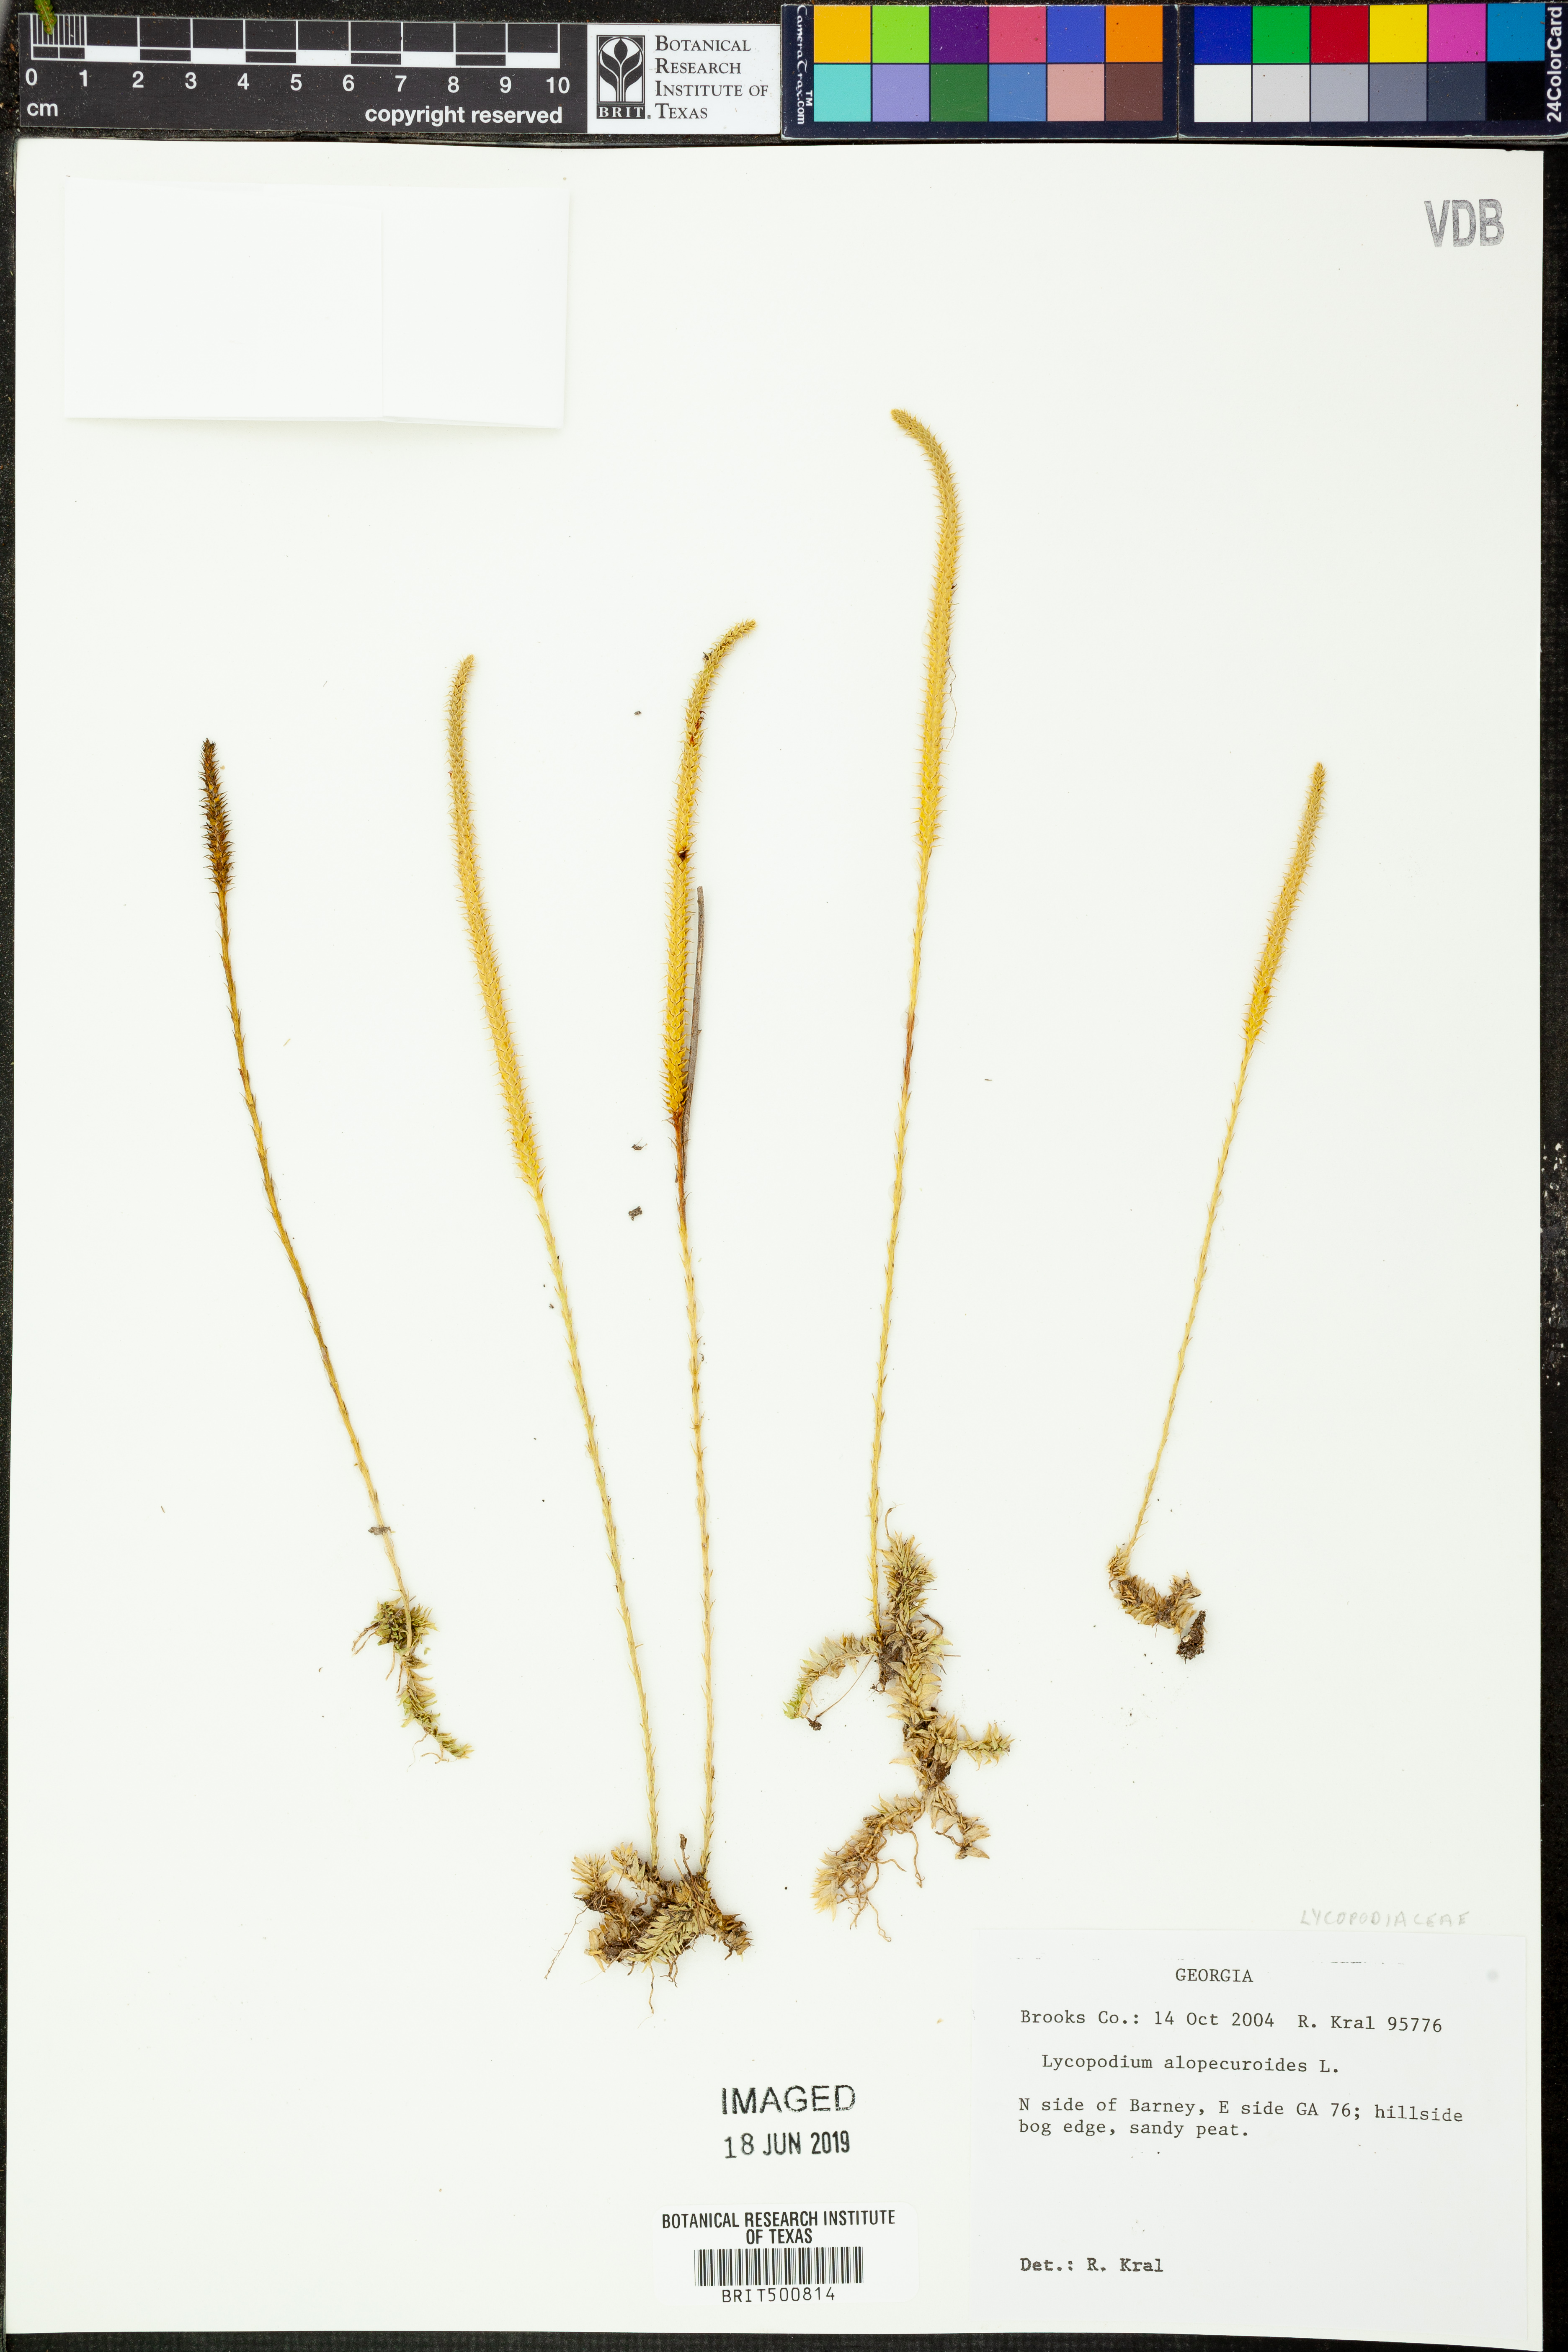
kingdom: Plantae
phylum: Tracheophyta
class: Lycopodiopsida
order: Lycopodiales
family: Lycopodiaceae
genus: Lycopodiella
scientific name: Lycopodiella alopecuroides
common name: Foxtail clubmoss
